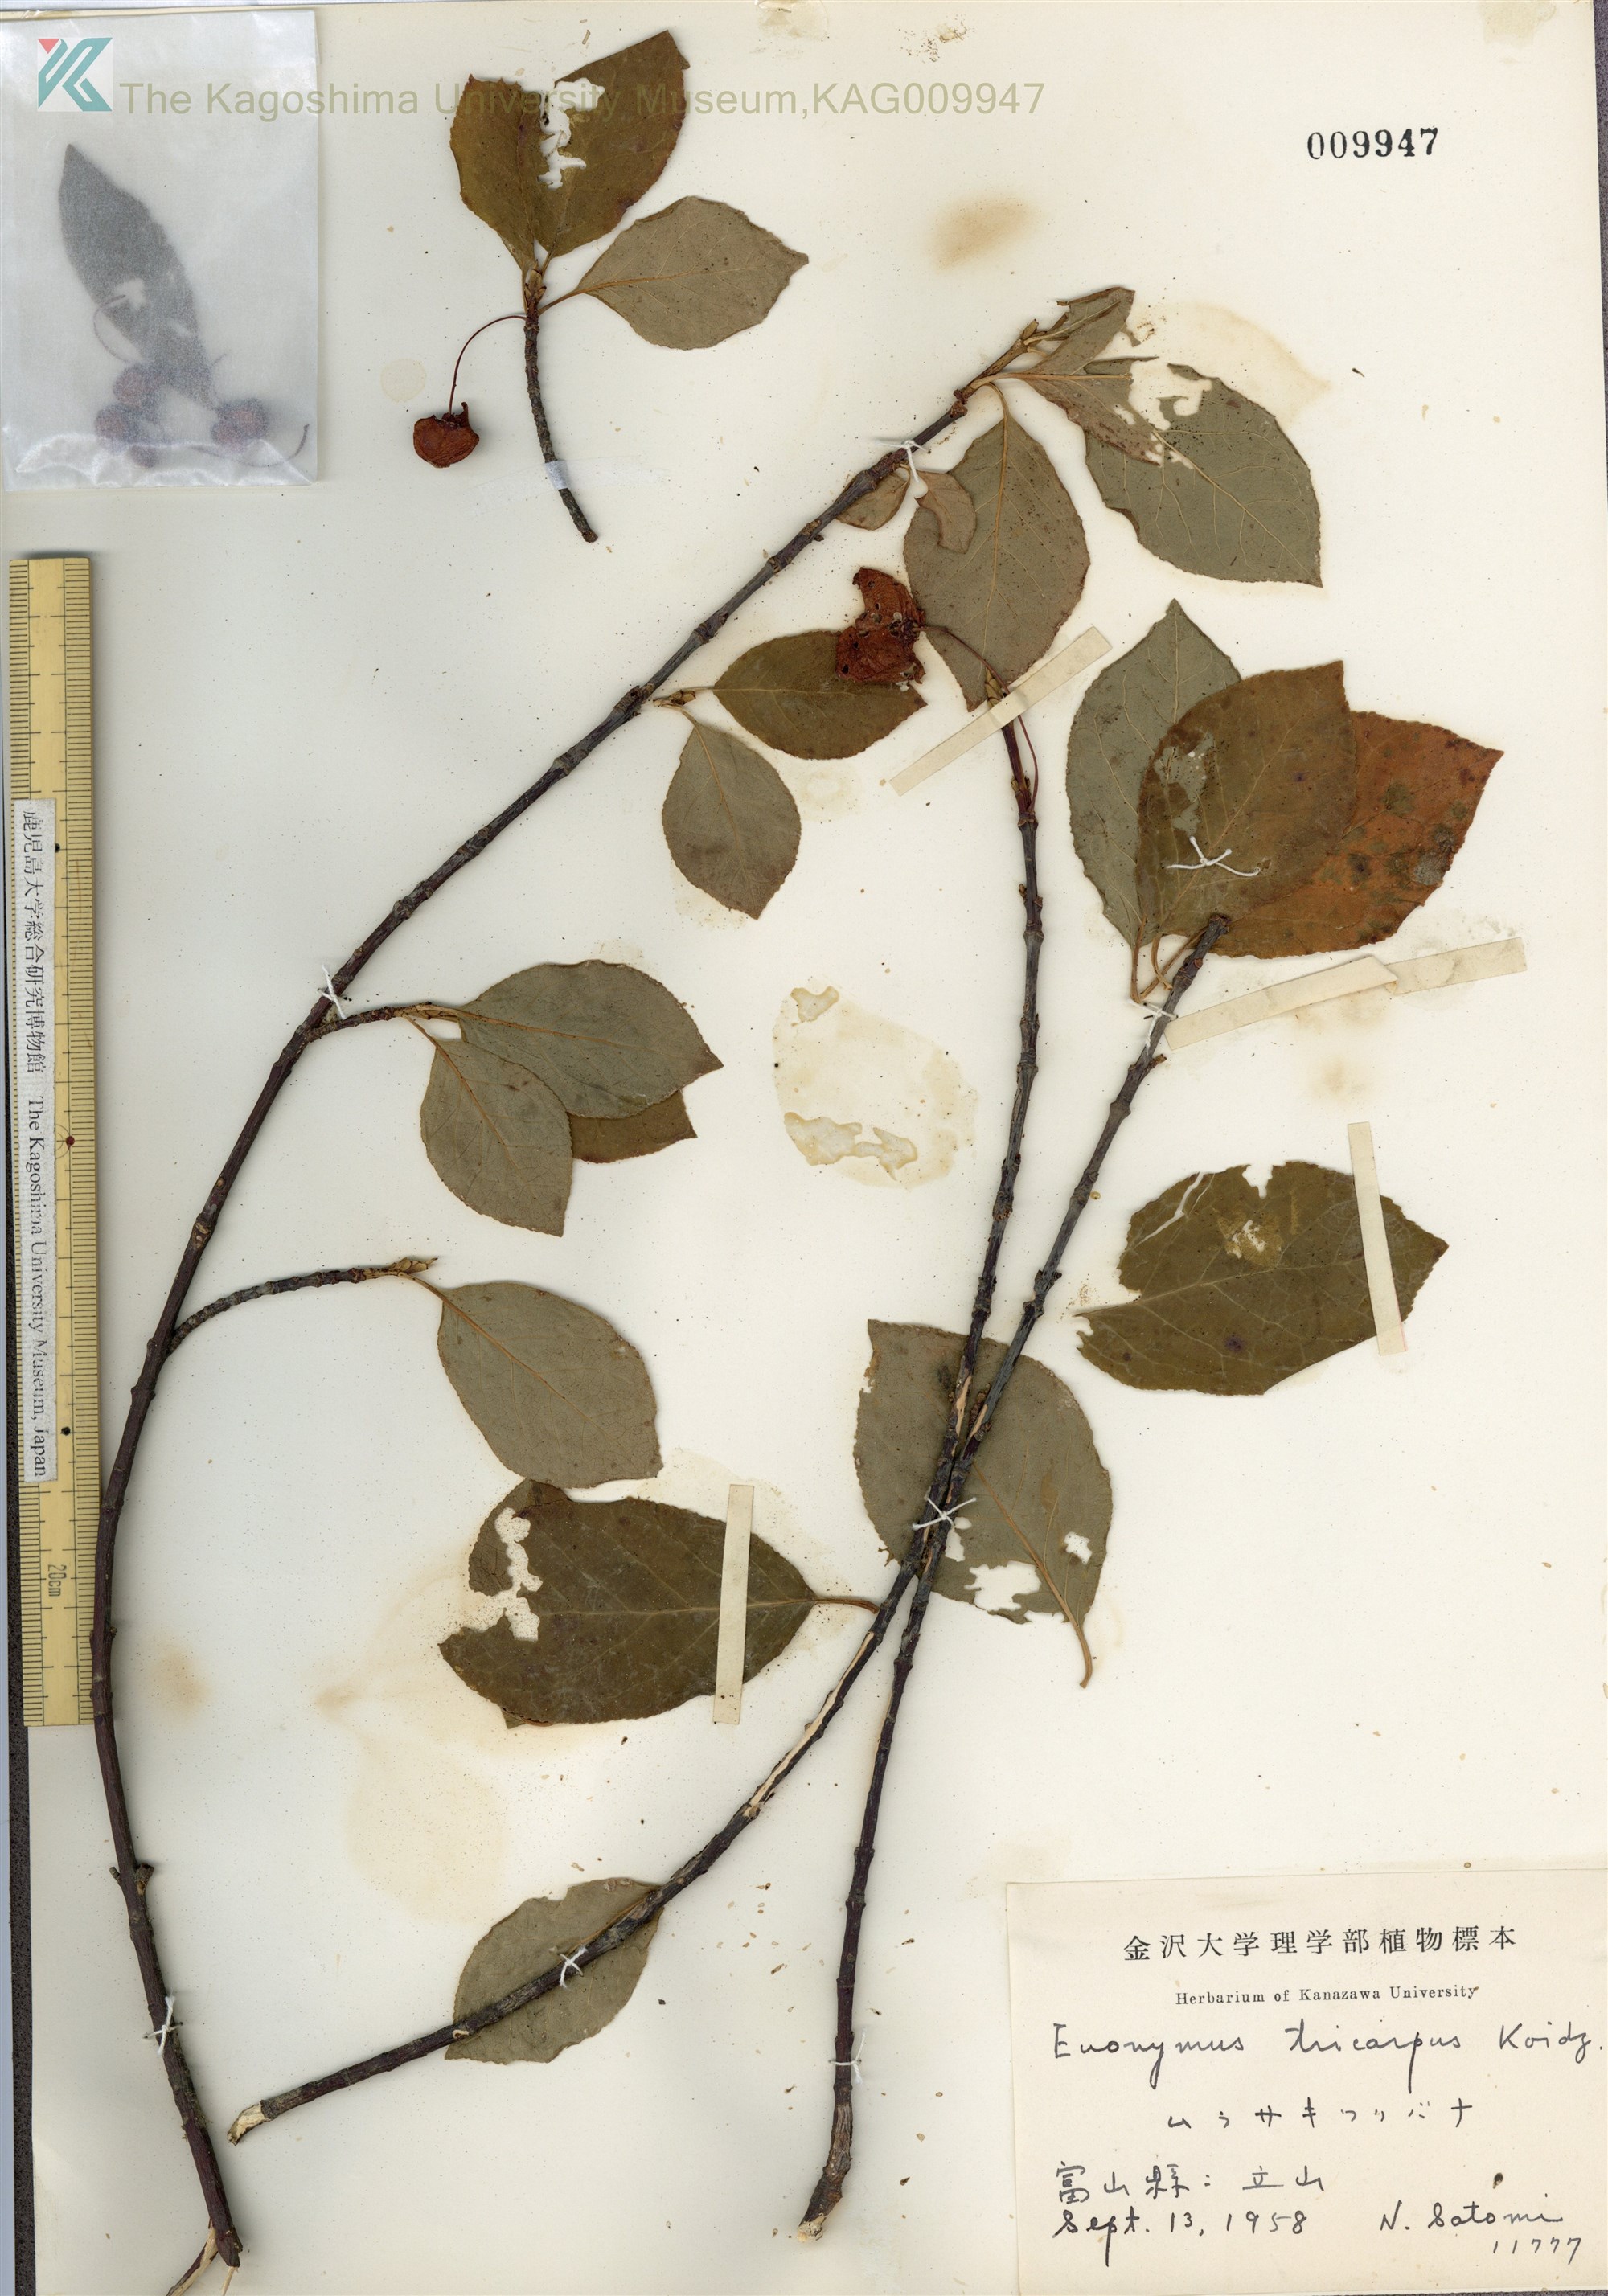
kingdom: Plantae
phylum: Tracheophyta
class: Magnoliopsida
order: Celastrales
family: Celastraceae
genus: Euonymus
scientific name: Euonymus sachalinensis
